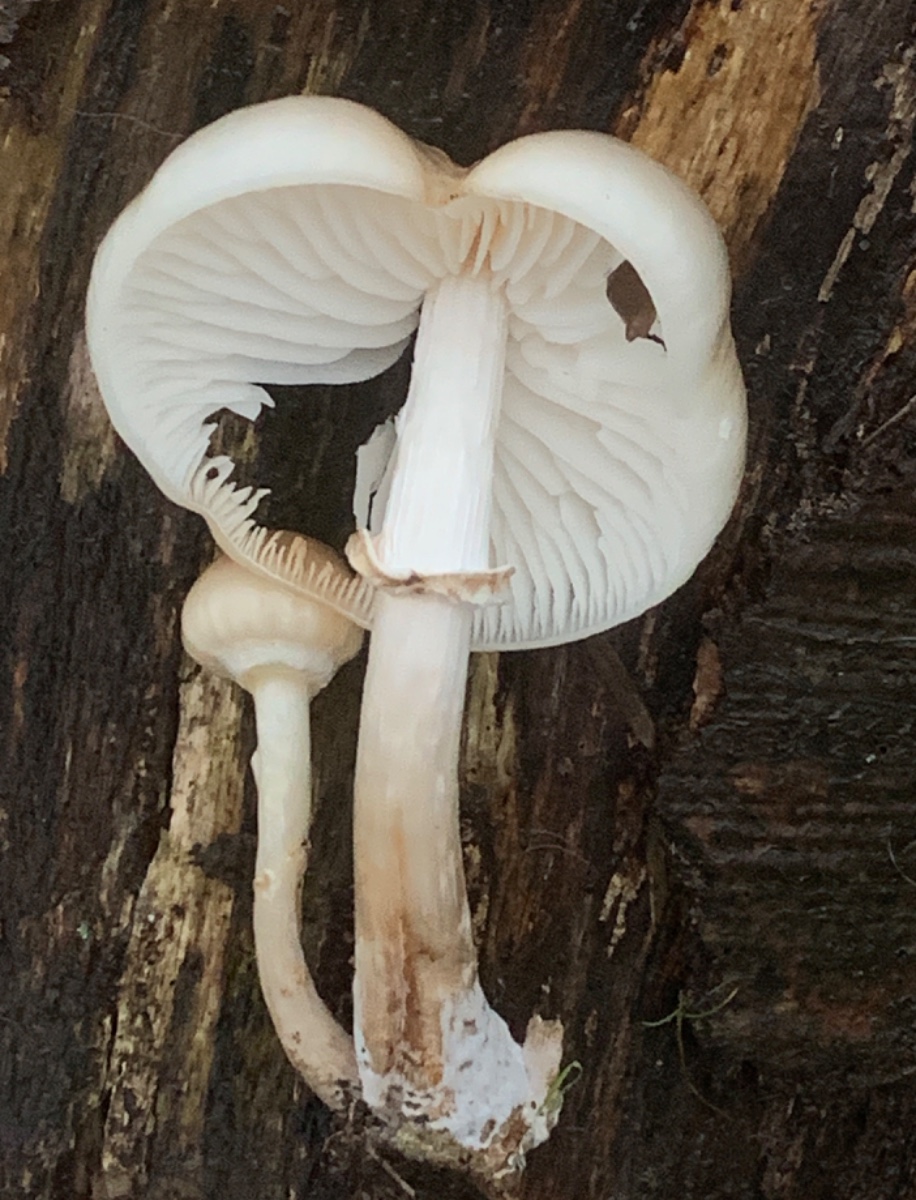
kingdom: Fungi
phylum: Basidiomycota
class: Agaricomycetes
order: Agaricales
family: Physalacriaceae
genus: Mucidula
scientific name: Mucidula mucida
